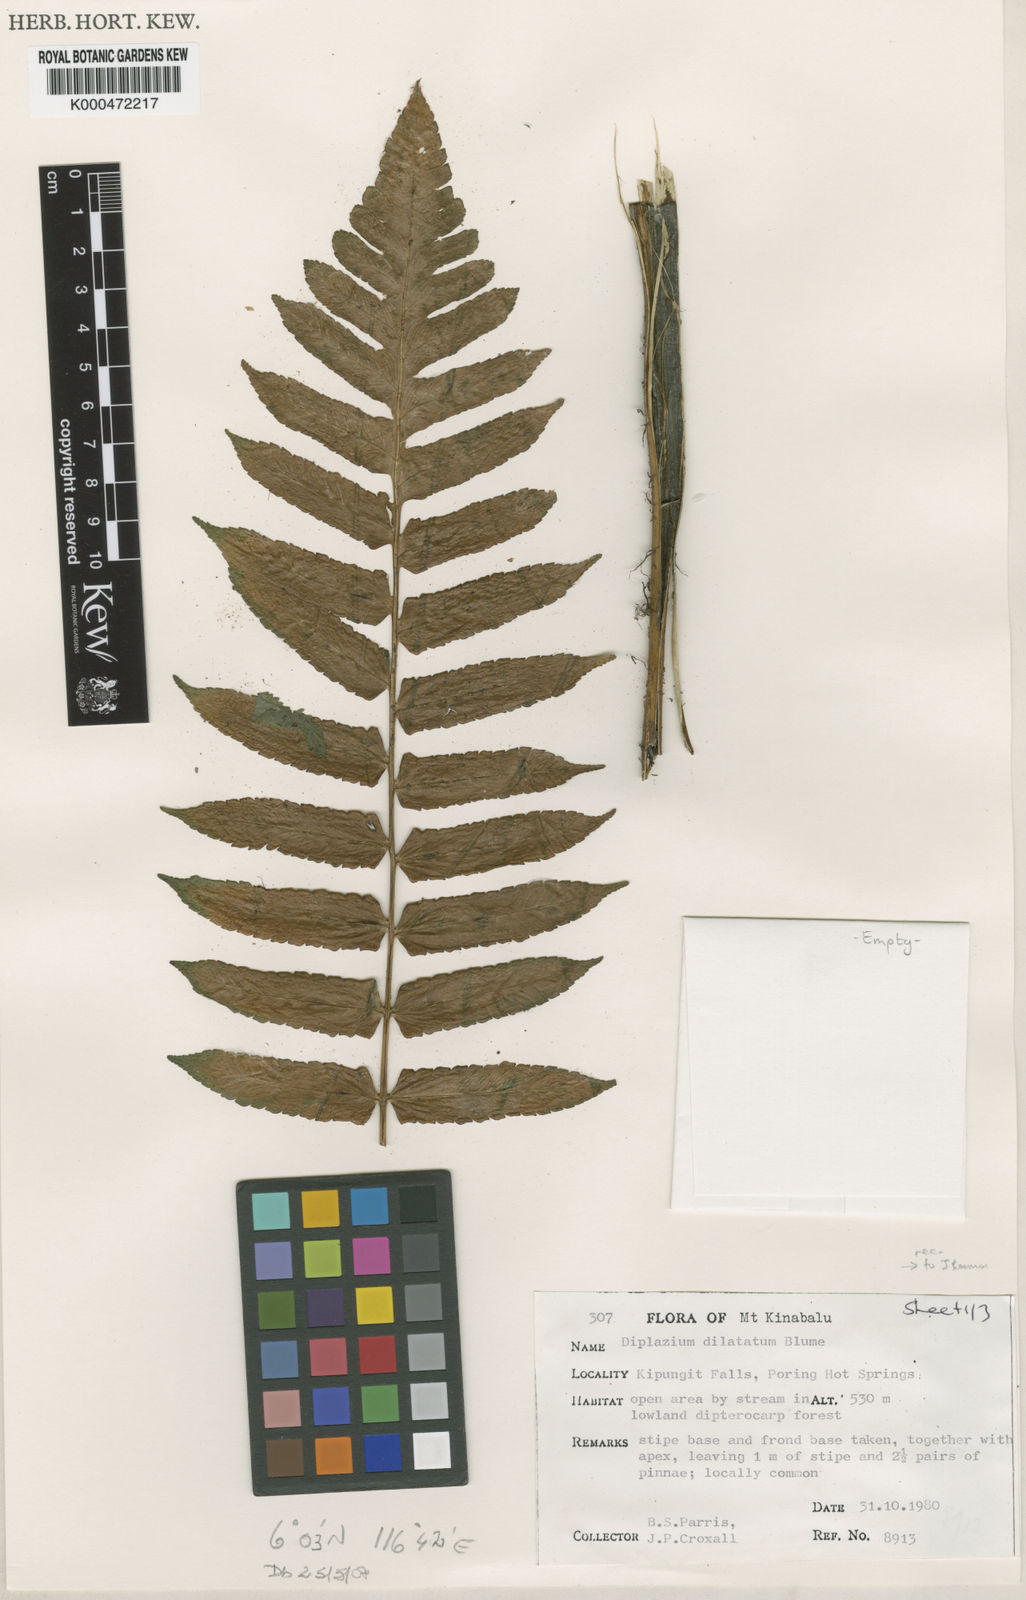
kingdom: Plantae
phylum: Tracheophyta
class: Polypodiopsida
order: Polypodiales
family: Athyriaceae
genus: Diplazium
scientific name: Diplazium dilatatum
